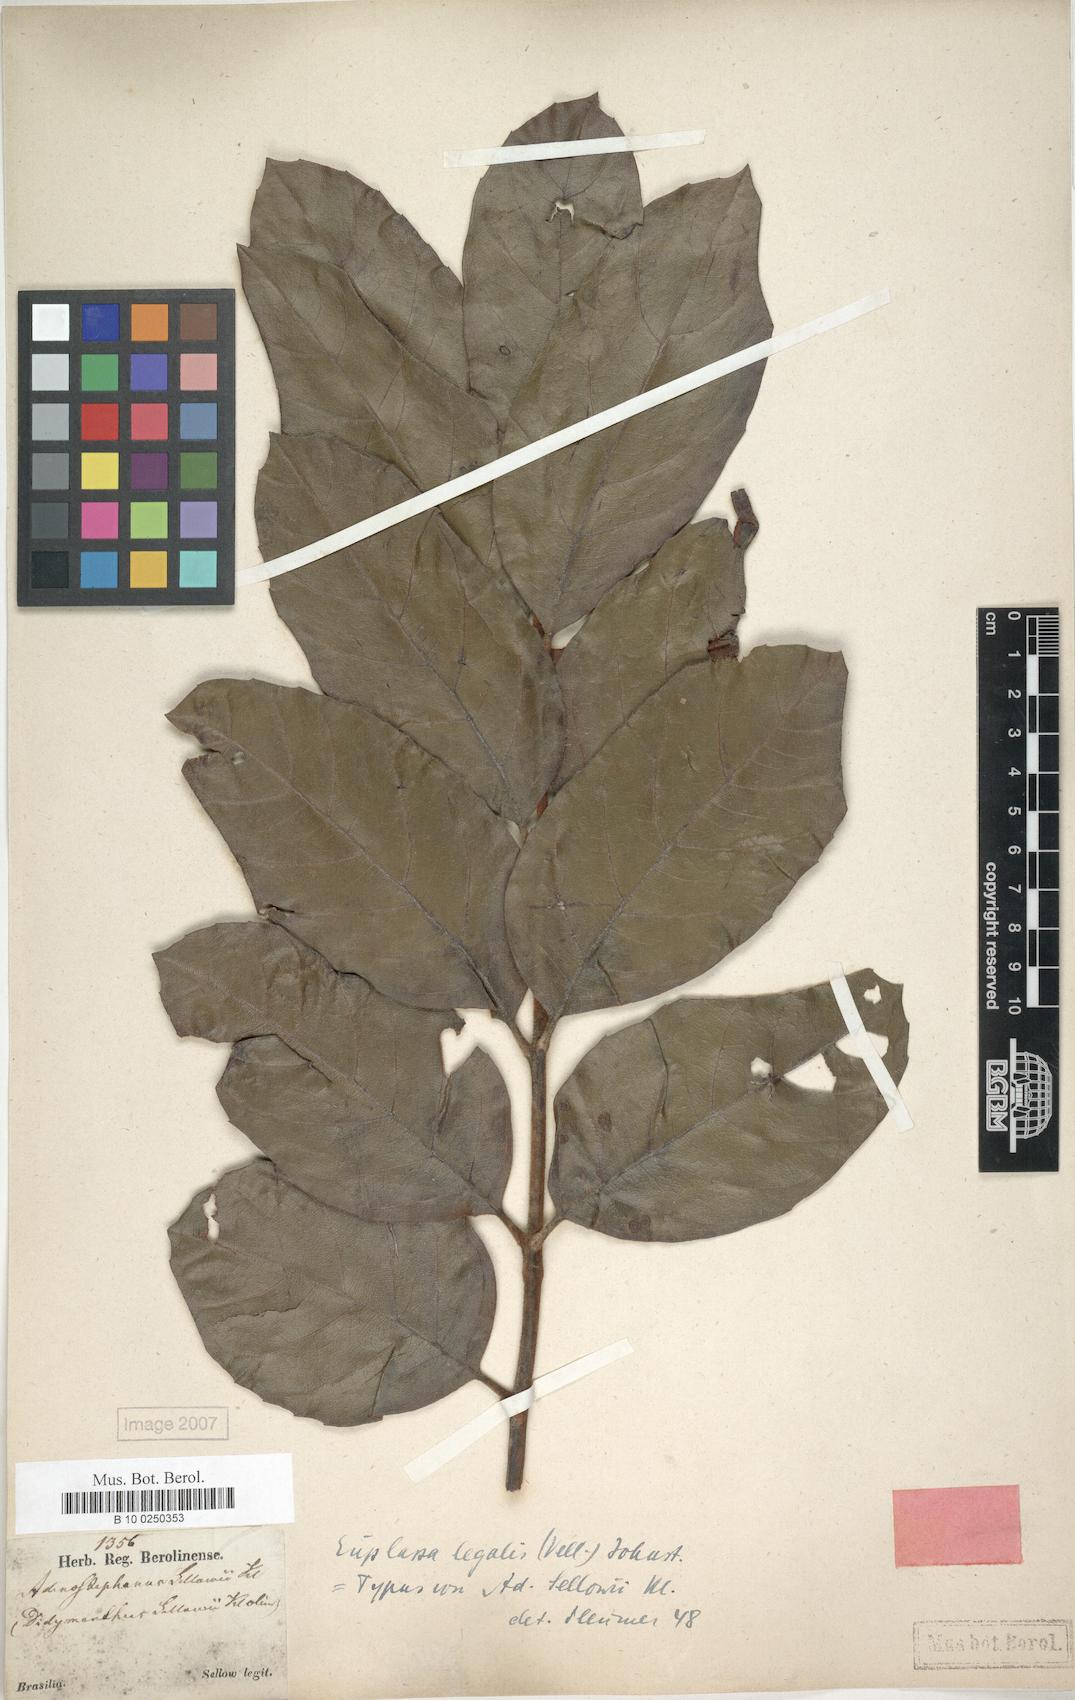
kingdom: Plantae
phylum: Tracheophyta
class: Magnoliopsida
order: Proteales
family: Proteaceae
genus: Euplassa
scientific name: Euplassa legalis
